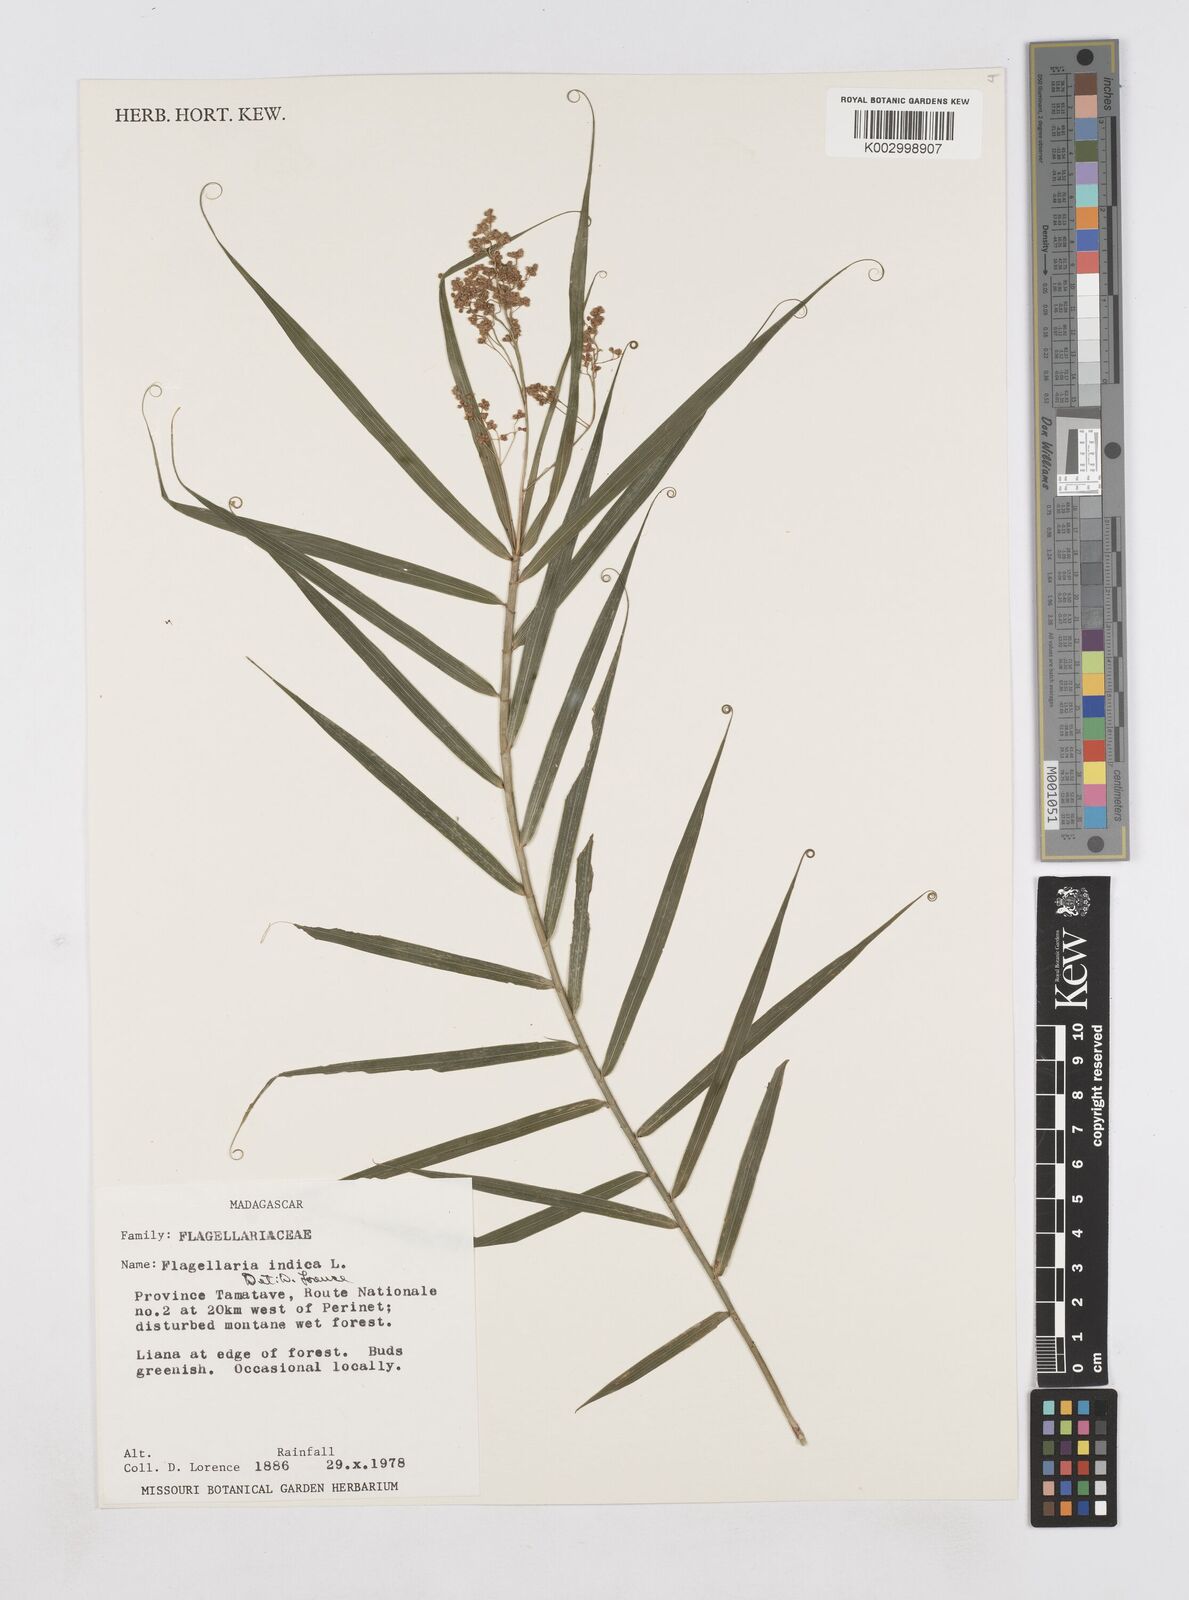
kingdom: Plantae
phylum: Tracheophyta
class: Liliopsida
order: Poales
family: Flagellariaceae
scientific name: Flagellariaceae
